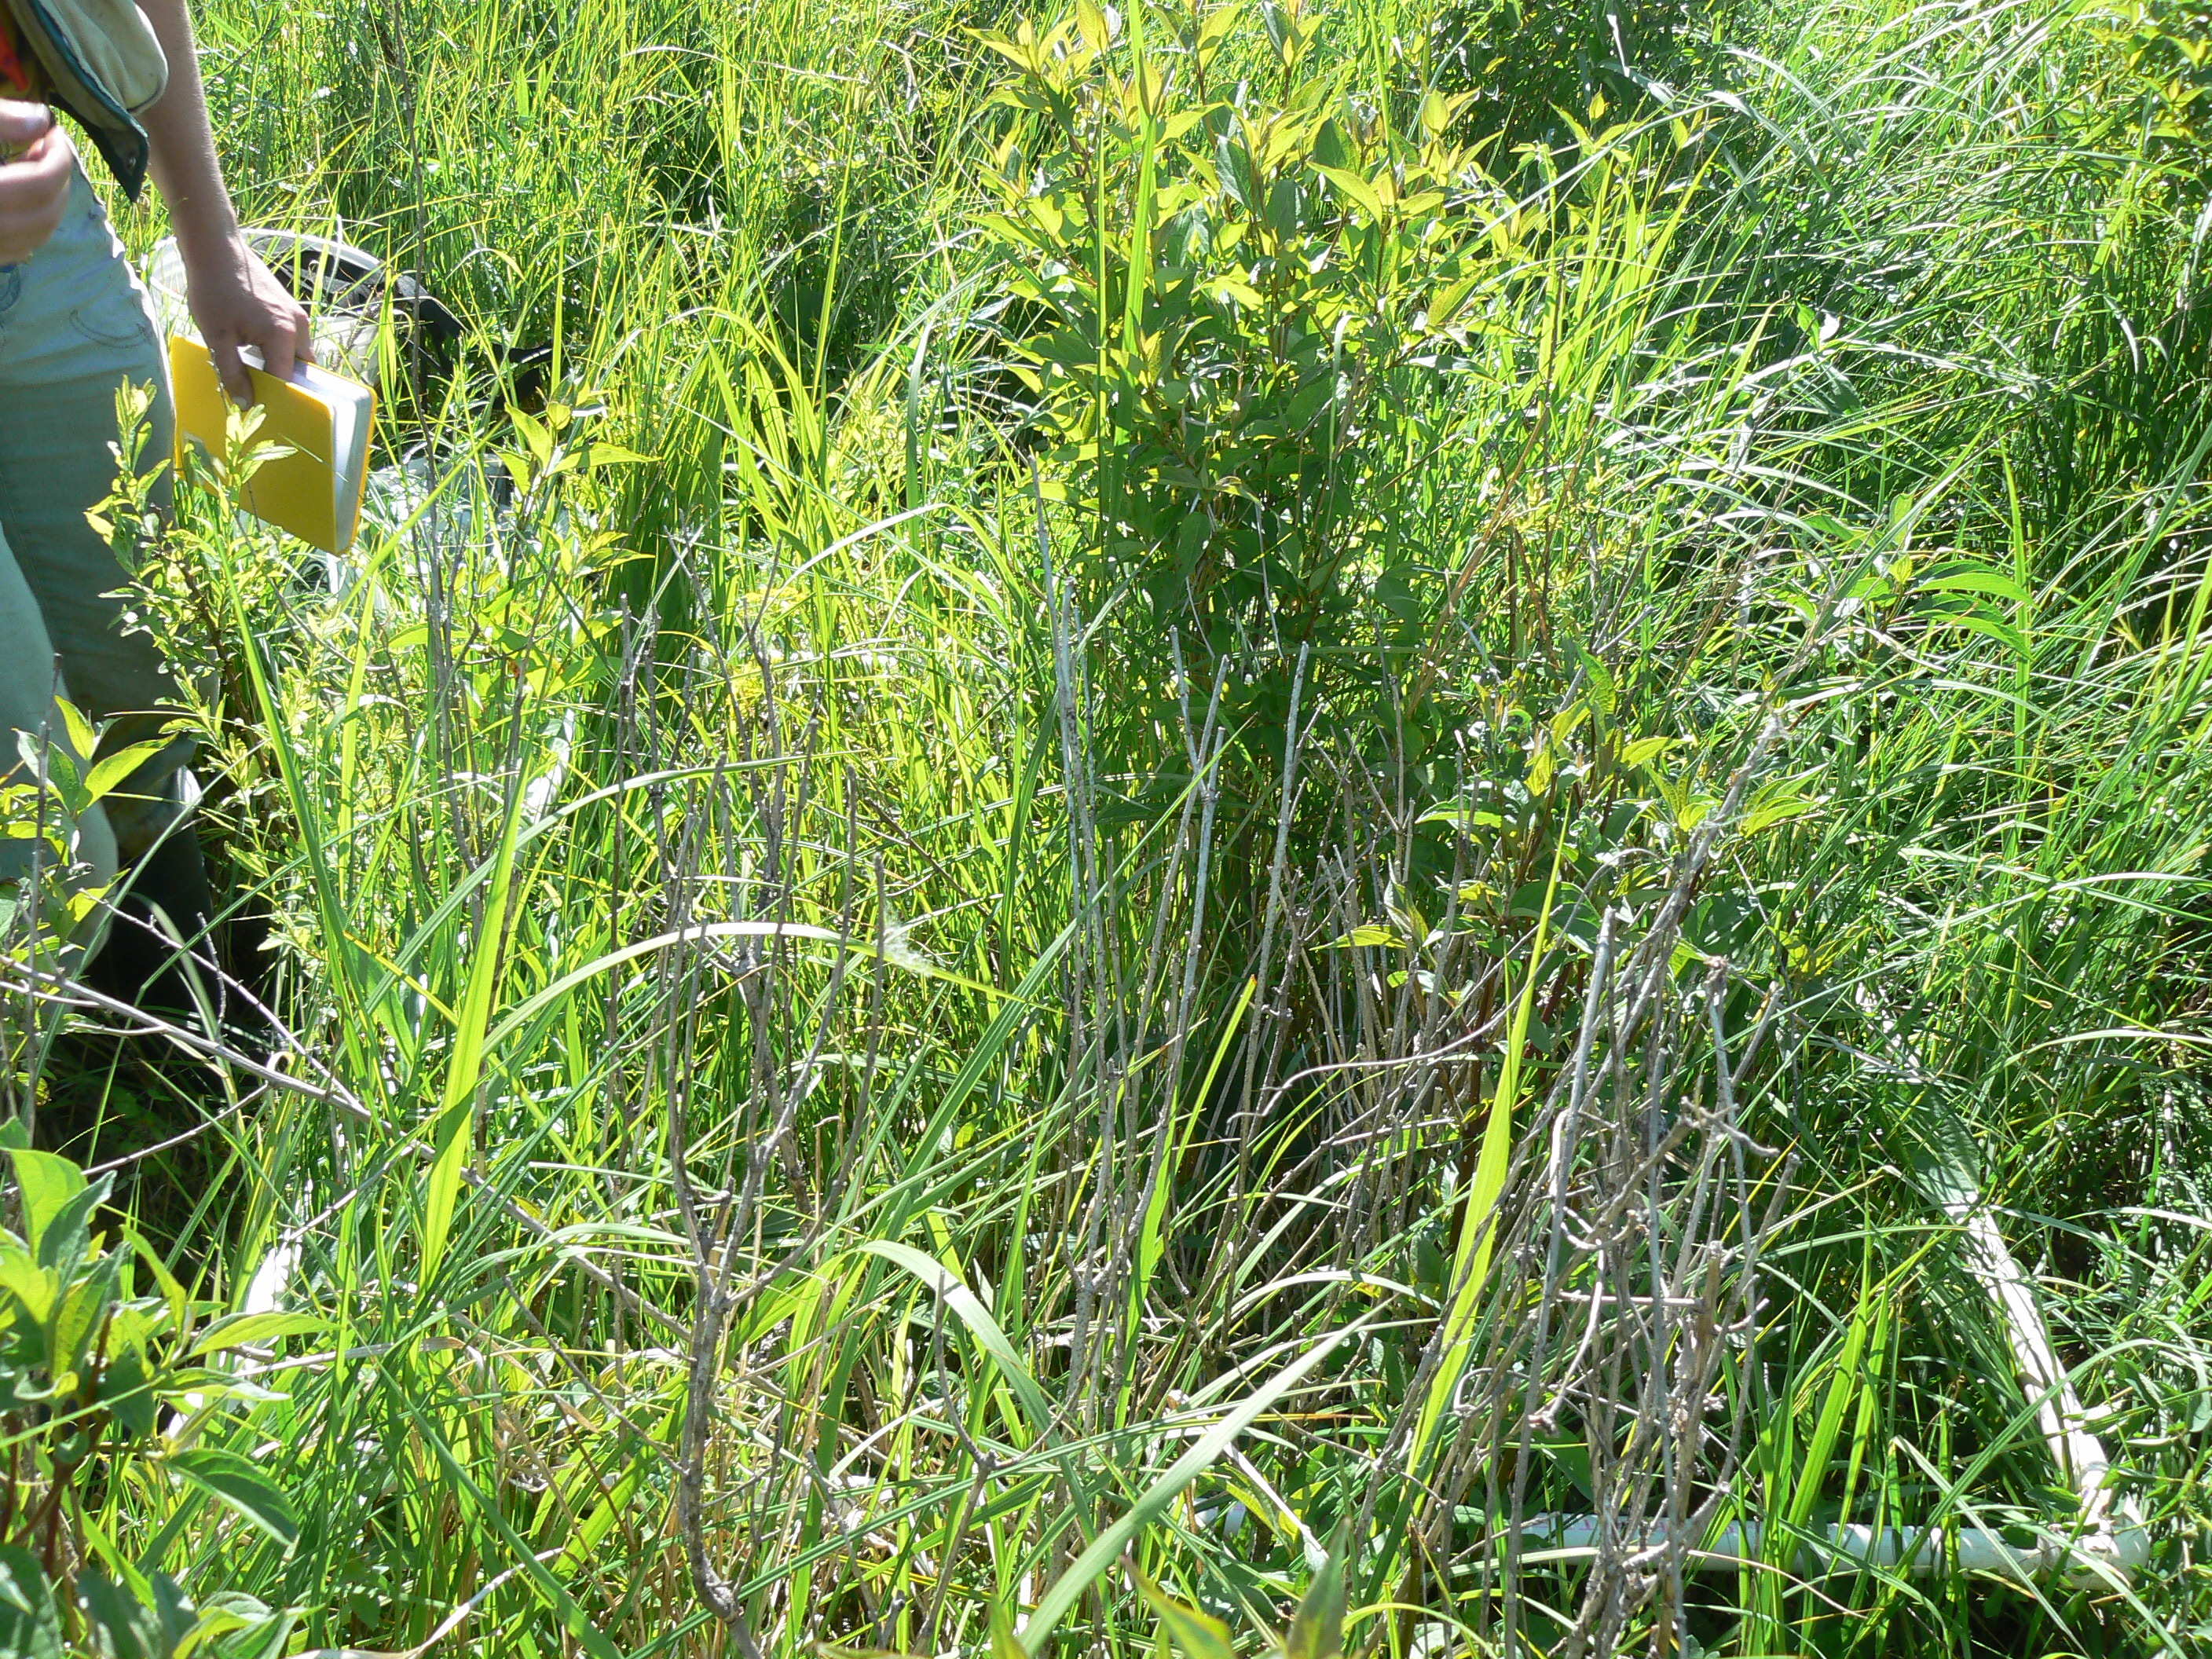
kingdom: Plantae
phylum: Tracheophyta
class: Magnoliopsida
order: Asterales
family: Asteraceae
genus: Symphyotrichum
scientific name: Symphyotrichum firmum
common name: Shining aster
